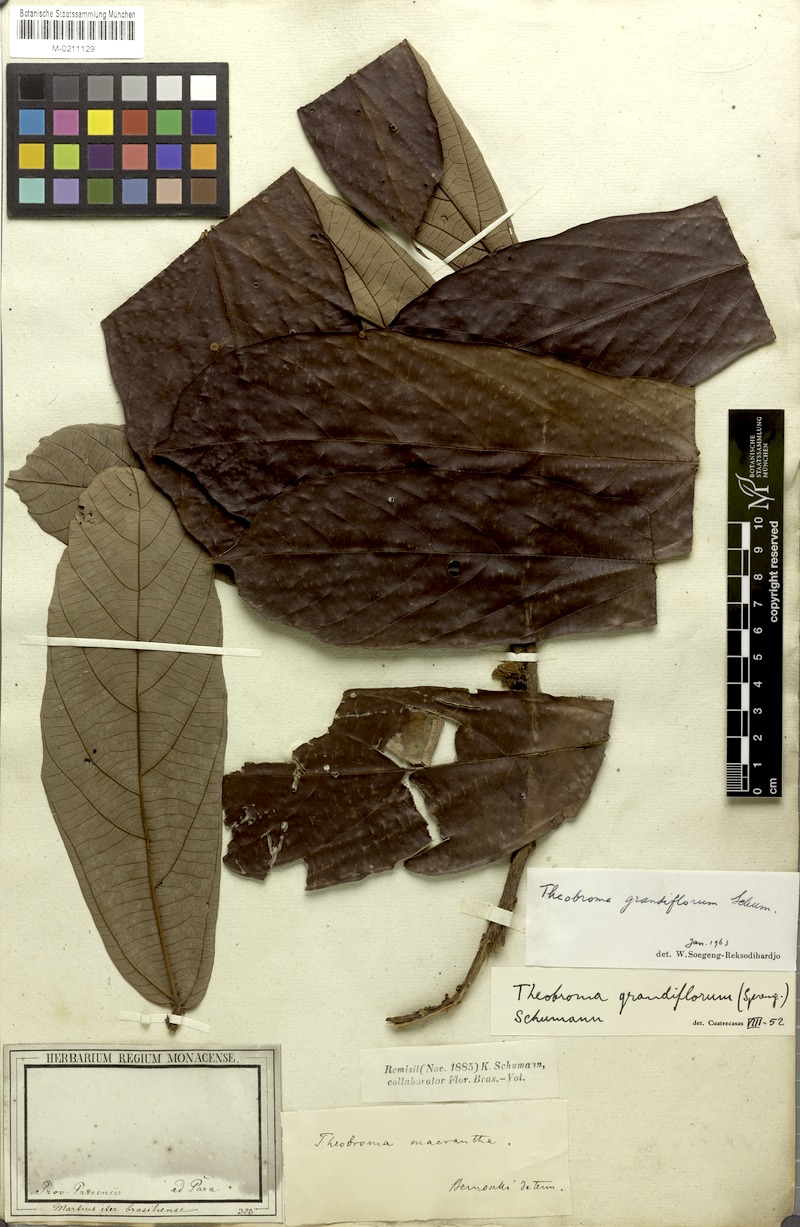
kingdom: Plantae
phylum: Tracheophyta
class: Magnoliopsida
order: Malvales
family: Malvaceae
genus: Theobroma
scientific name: Theobroma grandiflorum
